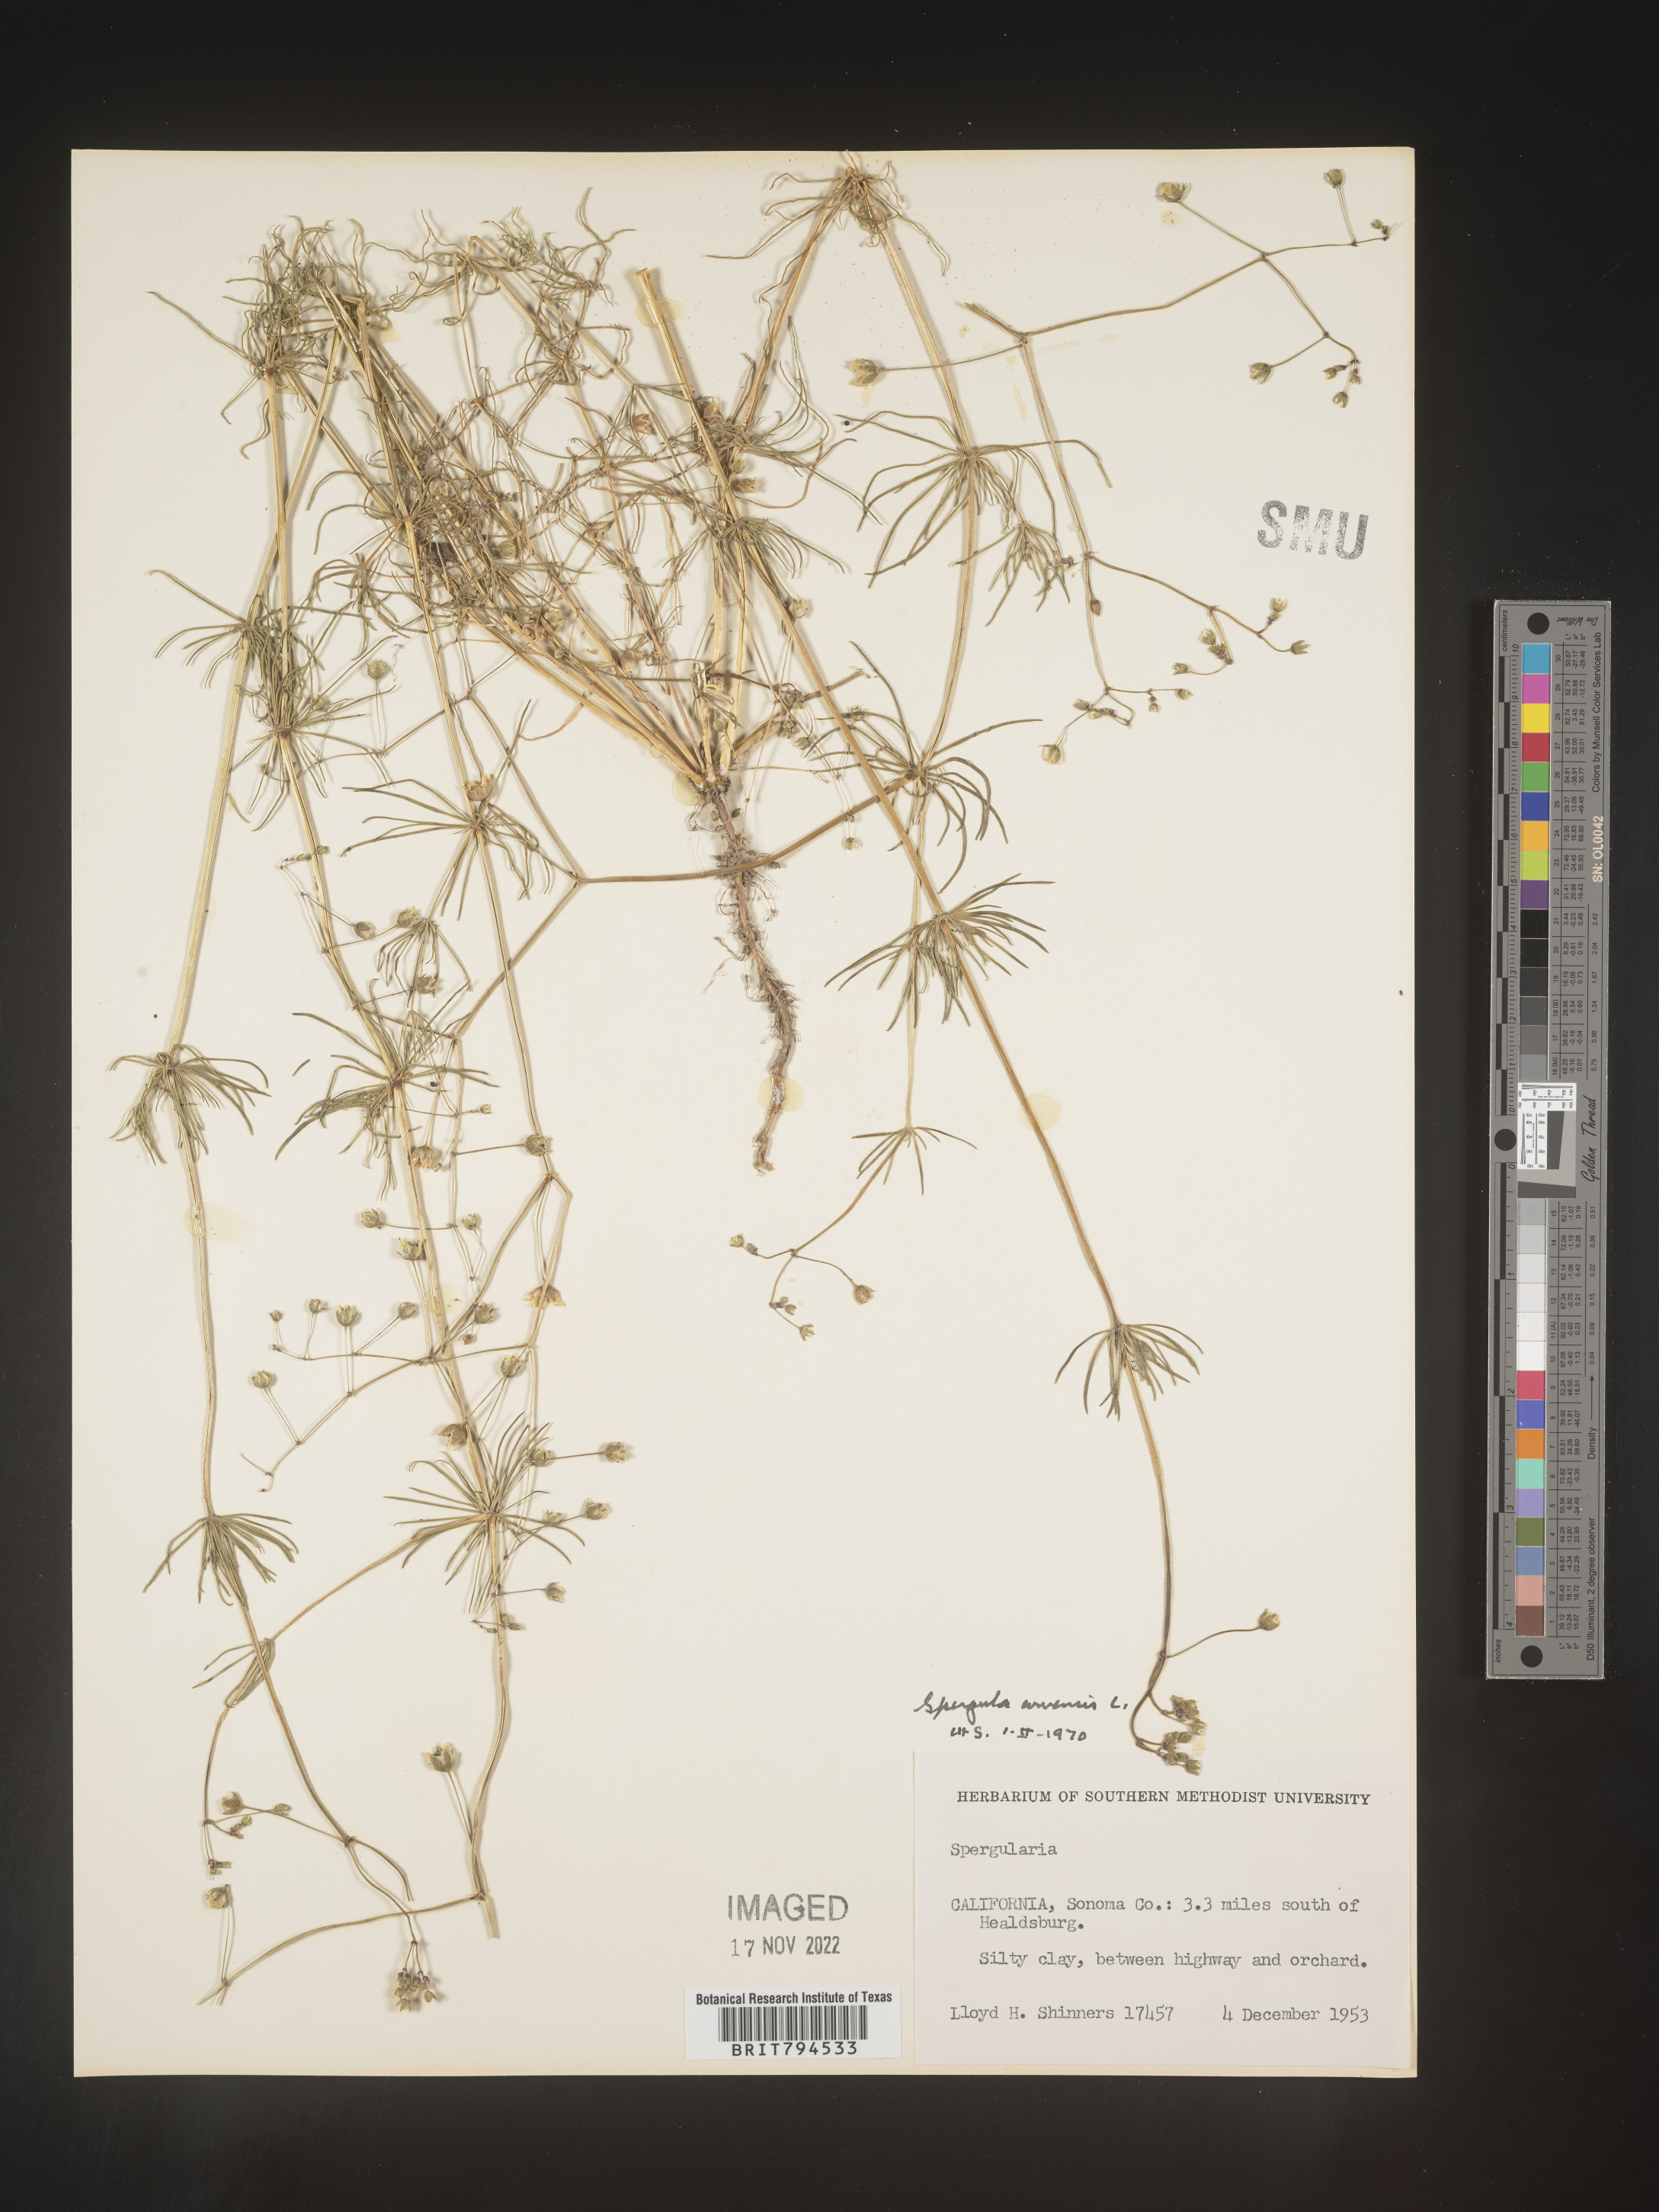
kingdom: Plantae
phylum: Tracheophyta
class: Magnoliopsida
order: Caryophyllales
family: Caryophyllaceae
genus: Spergula
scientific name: Spergula arvensis
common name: Corn spurrey
